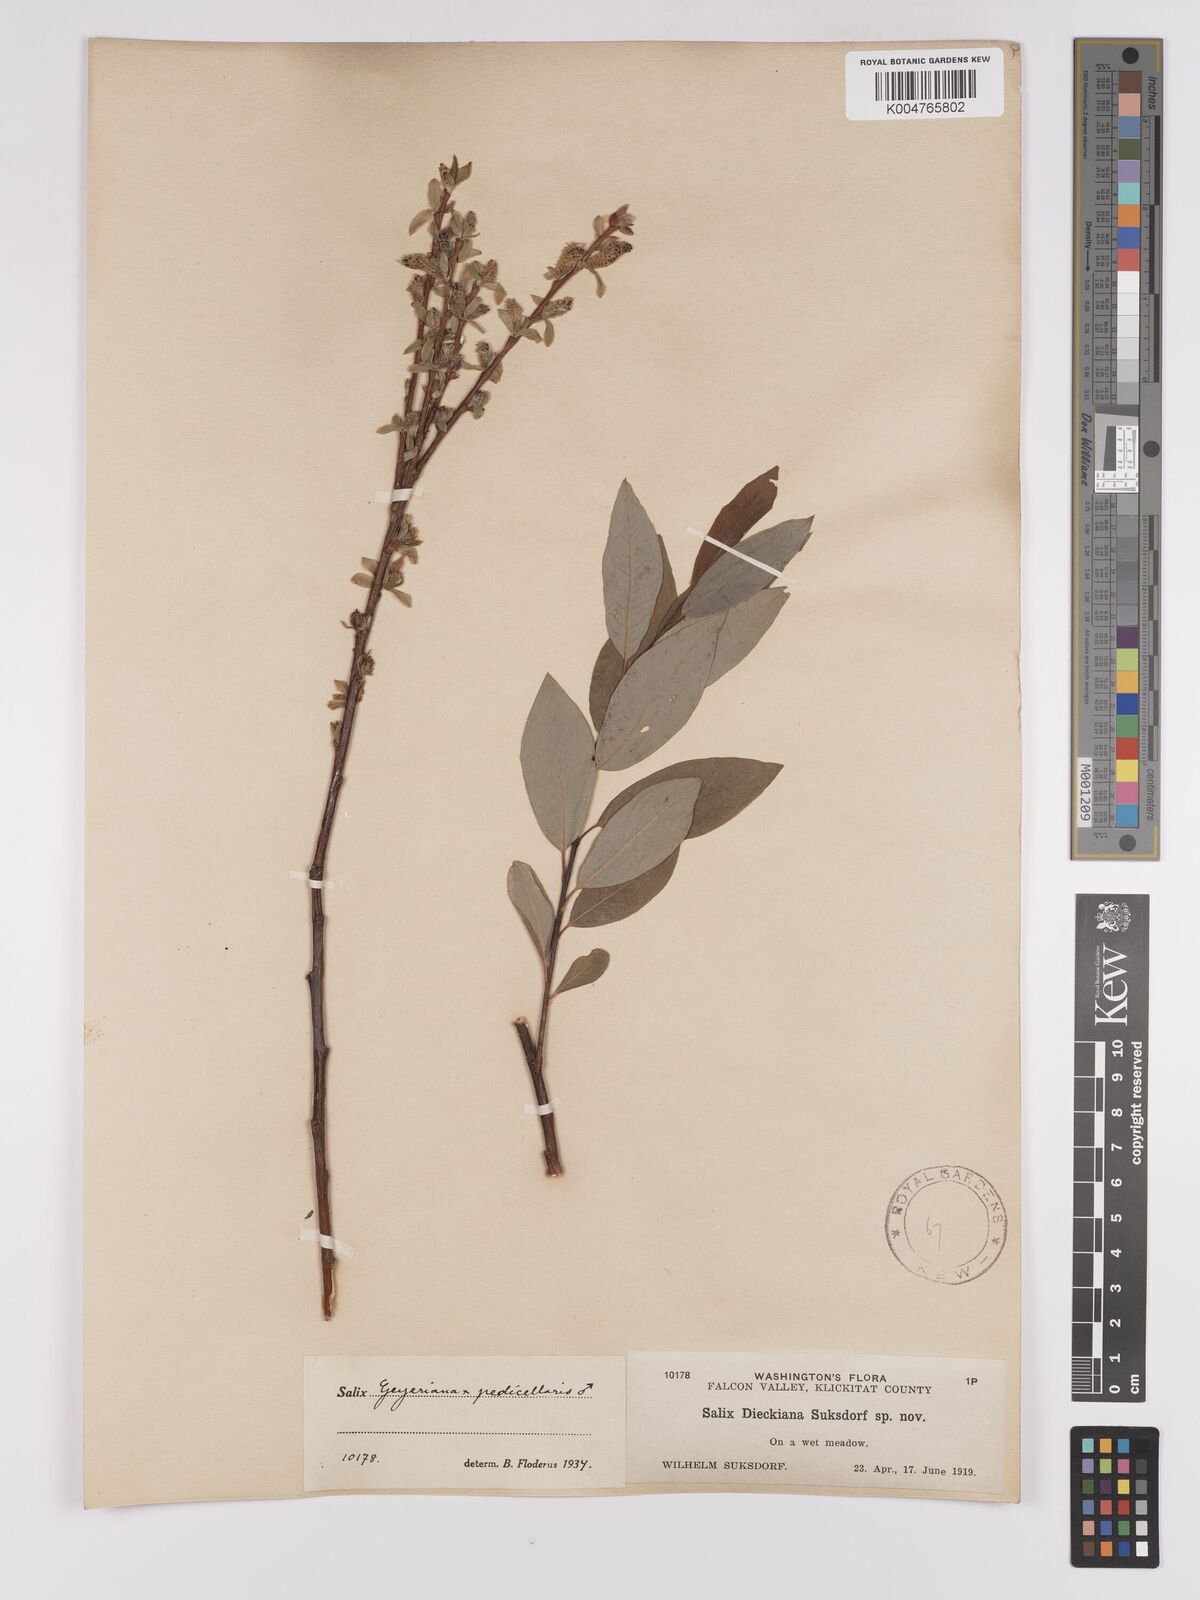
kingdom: Plantae
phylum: Tracheophyta
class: Magnoliopsida
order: Malpighiales
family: Salicaceae
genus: Salix
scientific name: Salix geyeriana
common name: Geyer's willow
